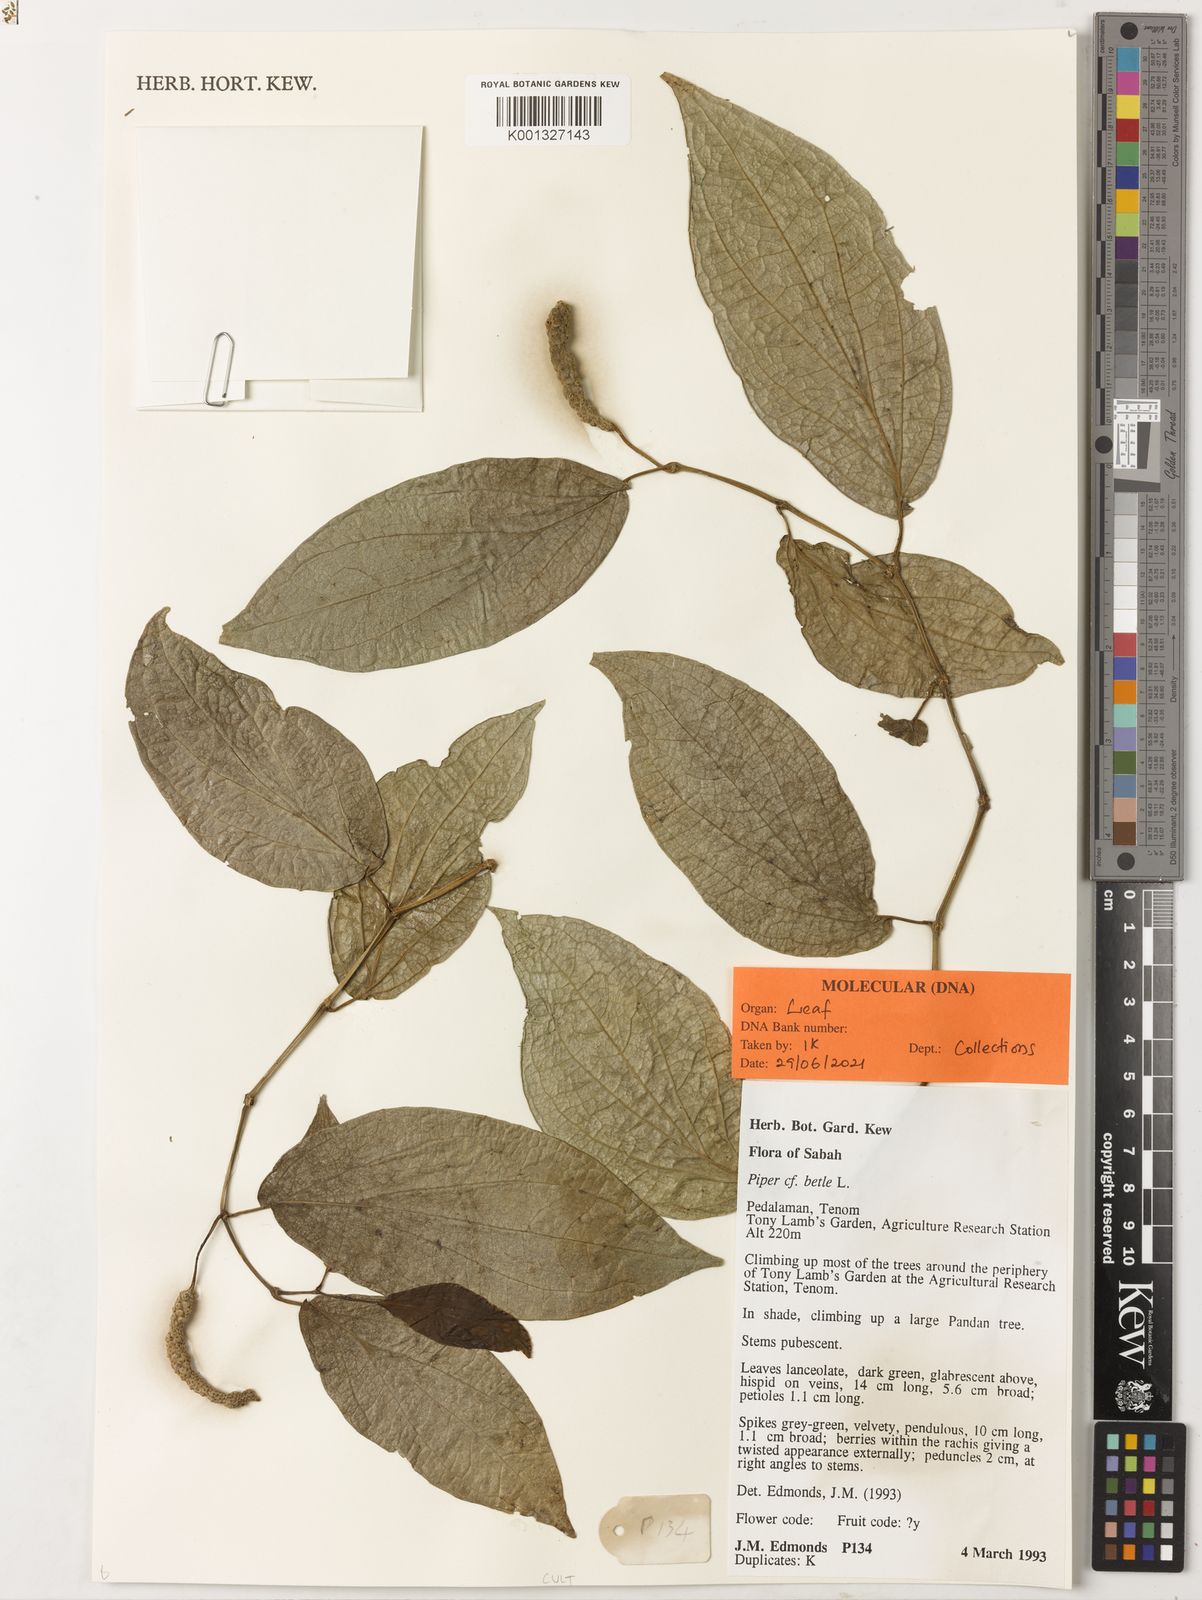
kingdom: Plantae
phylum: Tracheophyta
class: Magnoliopsida
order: Piperales
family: Piperaceae
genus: Piper
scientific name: Piper betle
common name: Betel pepper
